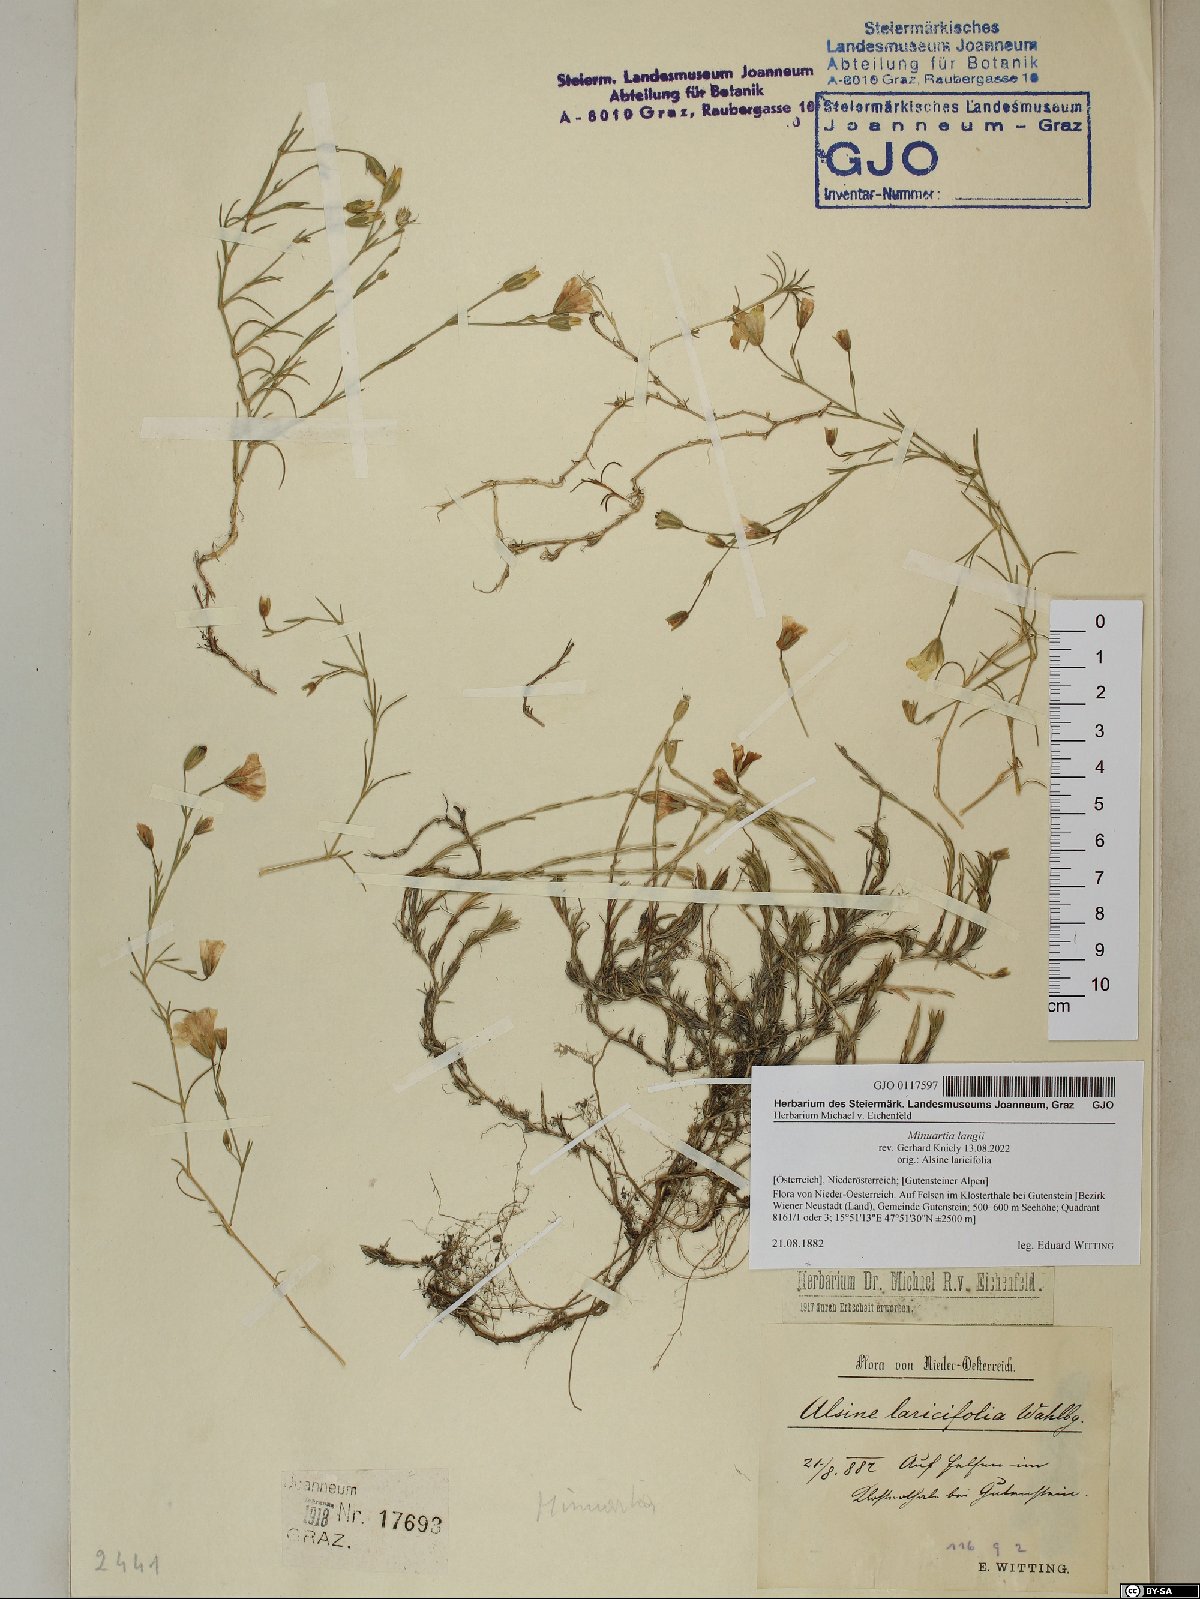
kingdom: Plantae
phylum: Tracheophyta
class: Magnoliopsida
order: Caryophyllales
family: Caryophyllaceae
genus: Cherleria
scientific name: Cherleria langii
